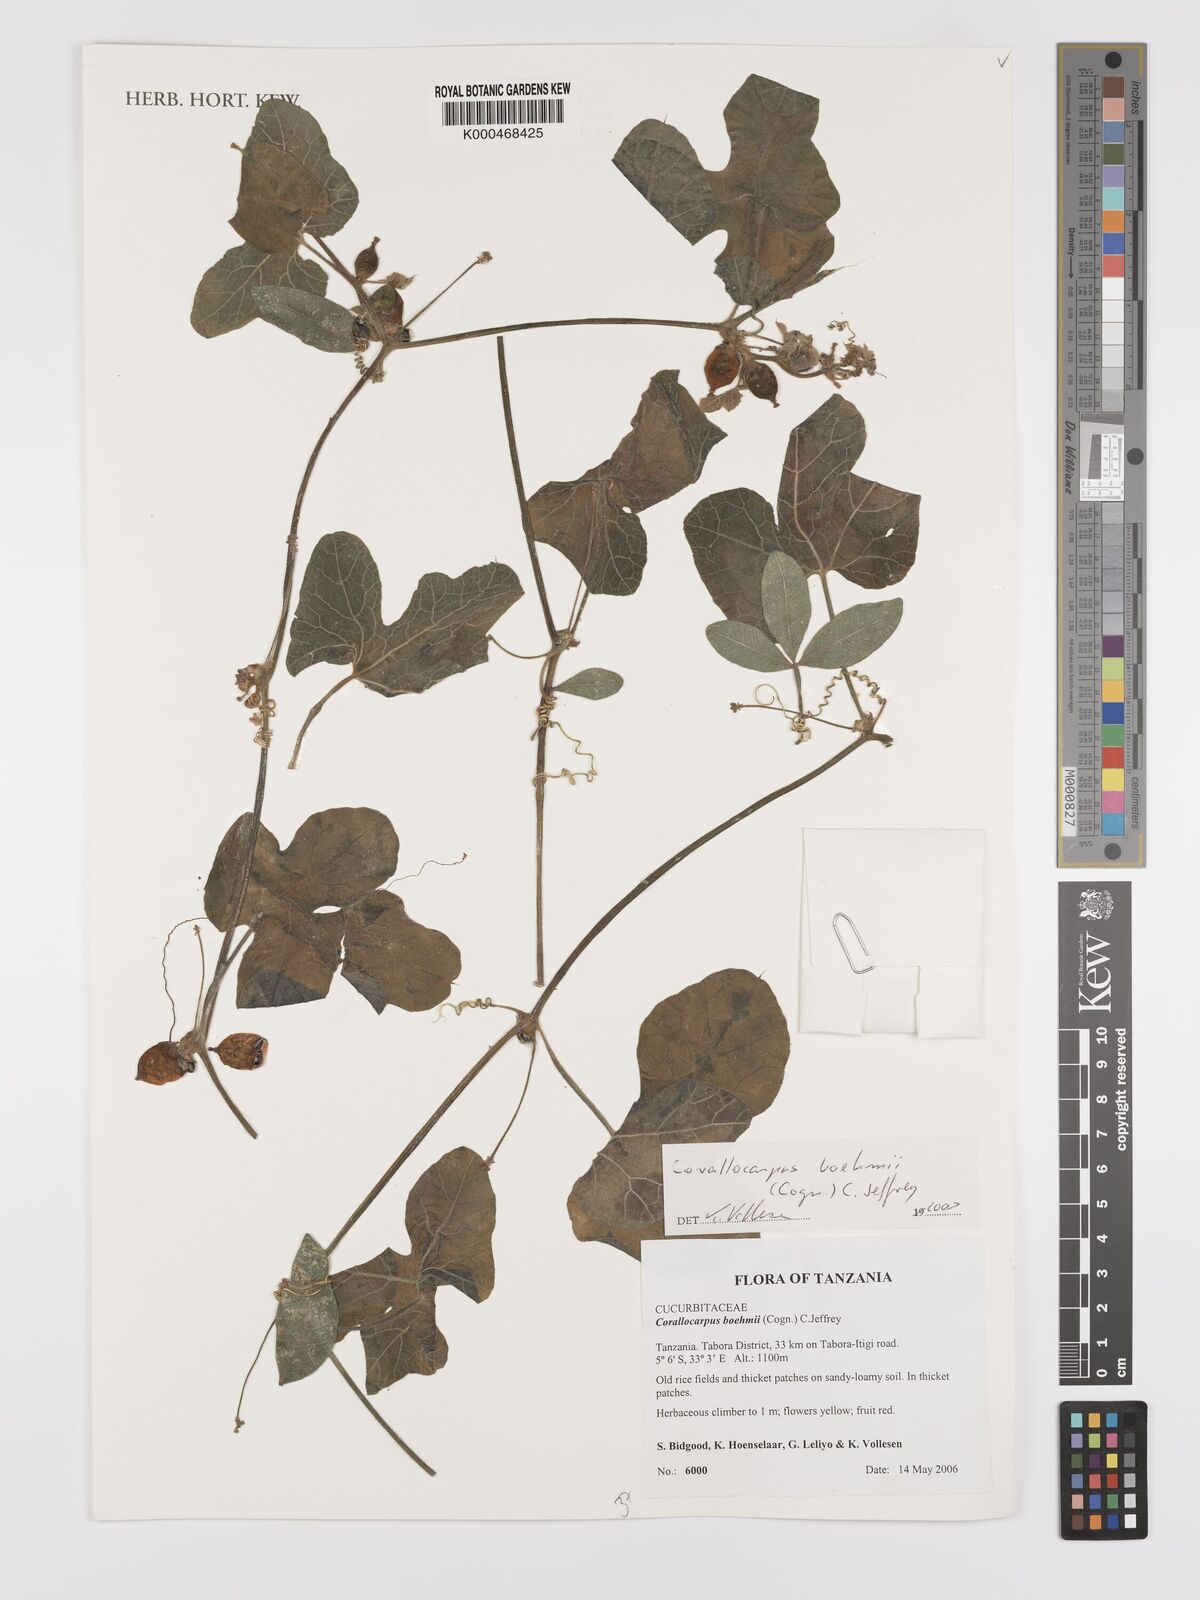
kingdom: Plantae
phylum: Tracheophyta
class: Magnoliopsida
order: Cucurbitales
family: Cucurbitaceae
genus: Corallocarpus
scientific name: Corallocarpus boehmii
